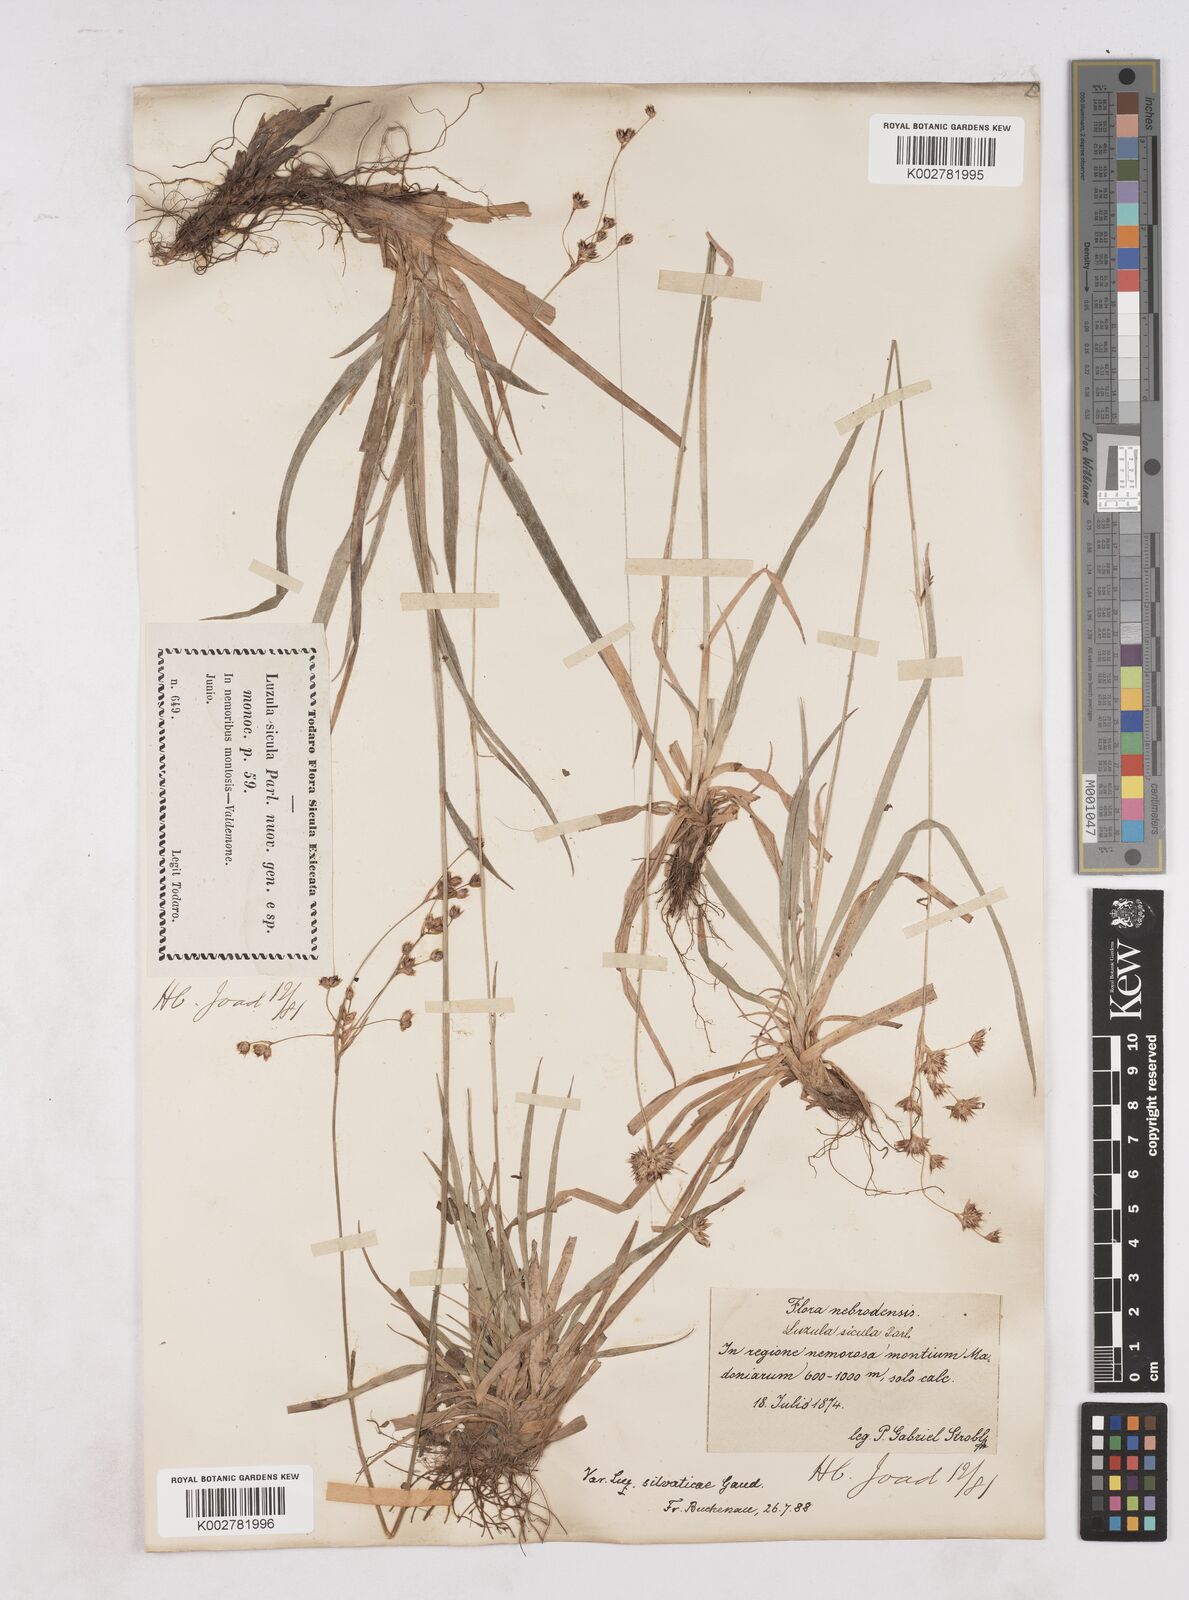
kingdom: Plantae
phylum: Tracheophyta
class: Liliopsida
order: Poales
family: Juncaceae
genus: Luzula
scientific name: Luzula sylvatica
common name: Great wood-rush
